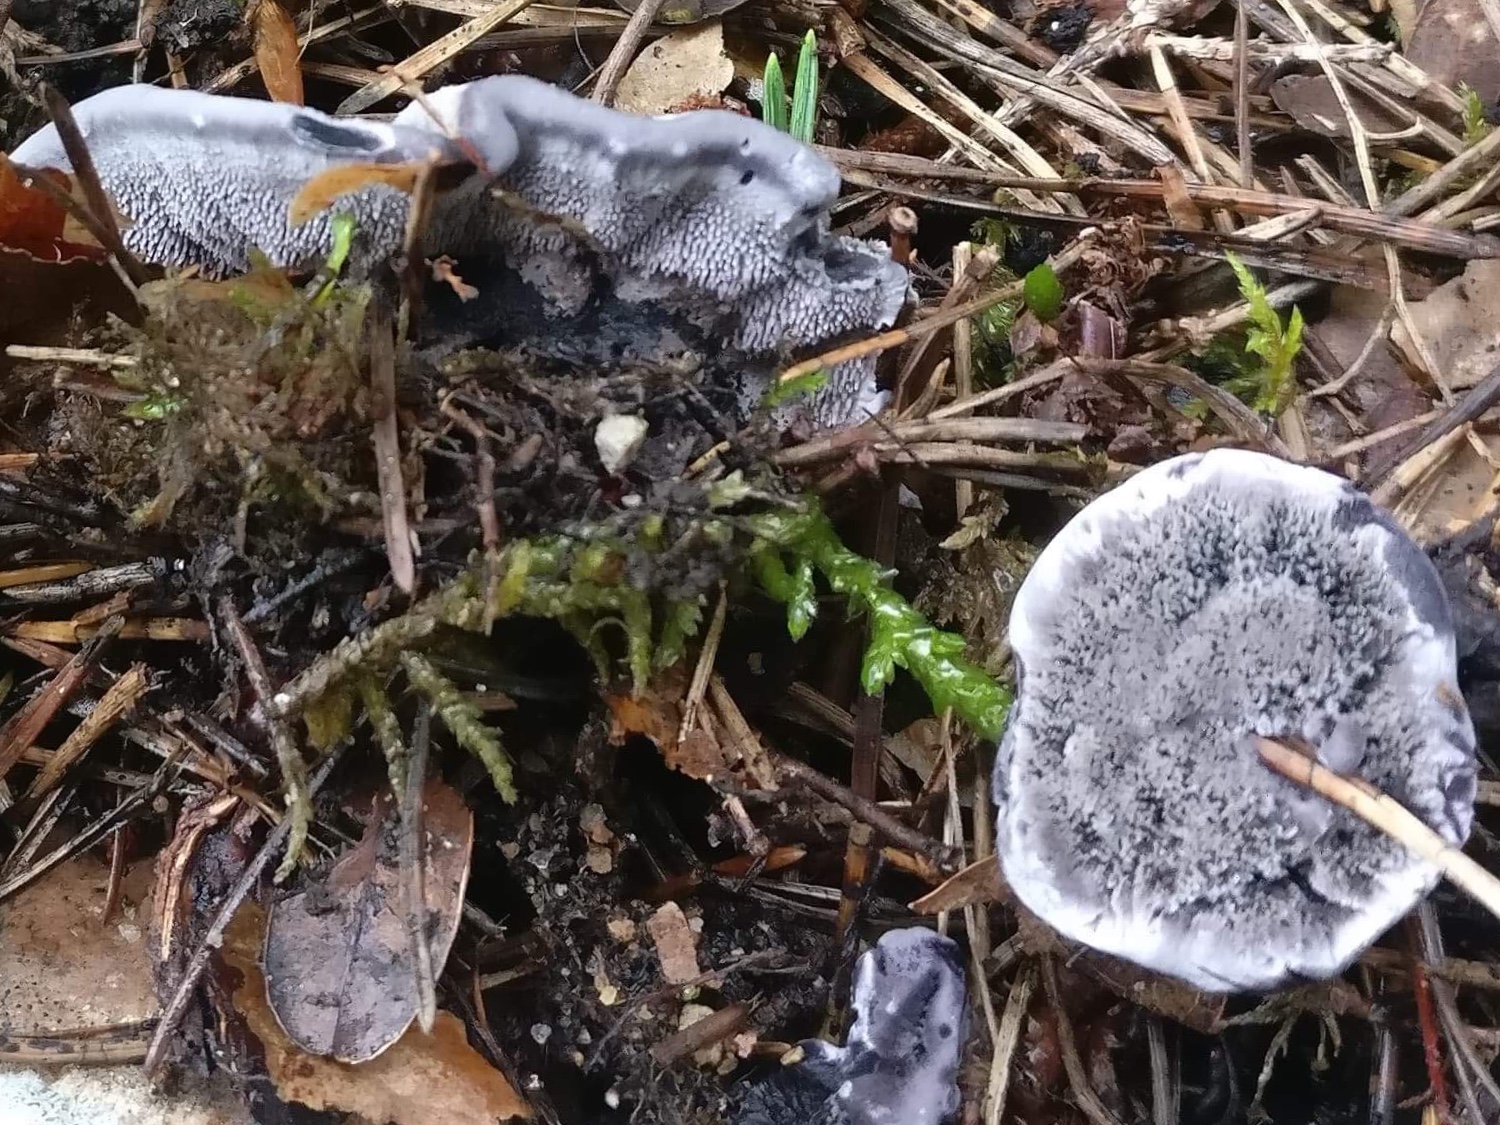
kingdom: Fungi
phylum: Basidiomycota
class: Agaricomycetes
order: Thelephorales
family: Thelephoraceae
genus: Phellodon
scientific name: Phellodon
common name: mørk duftpigsvamp
